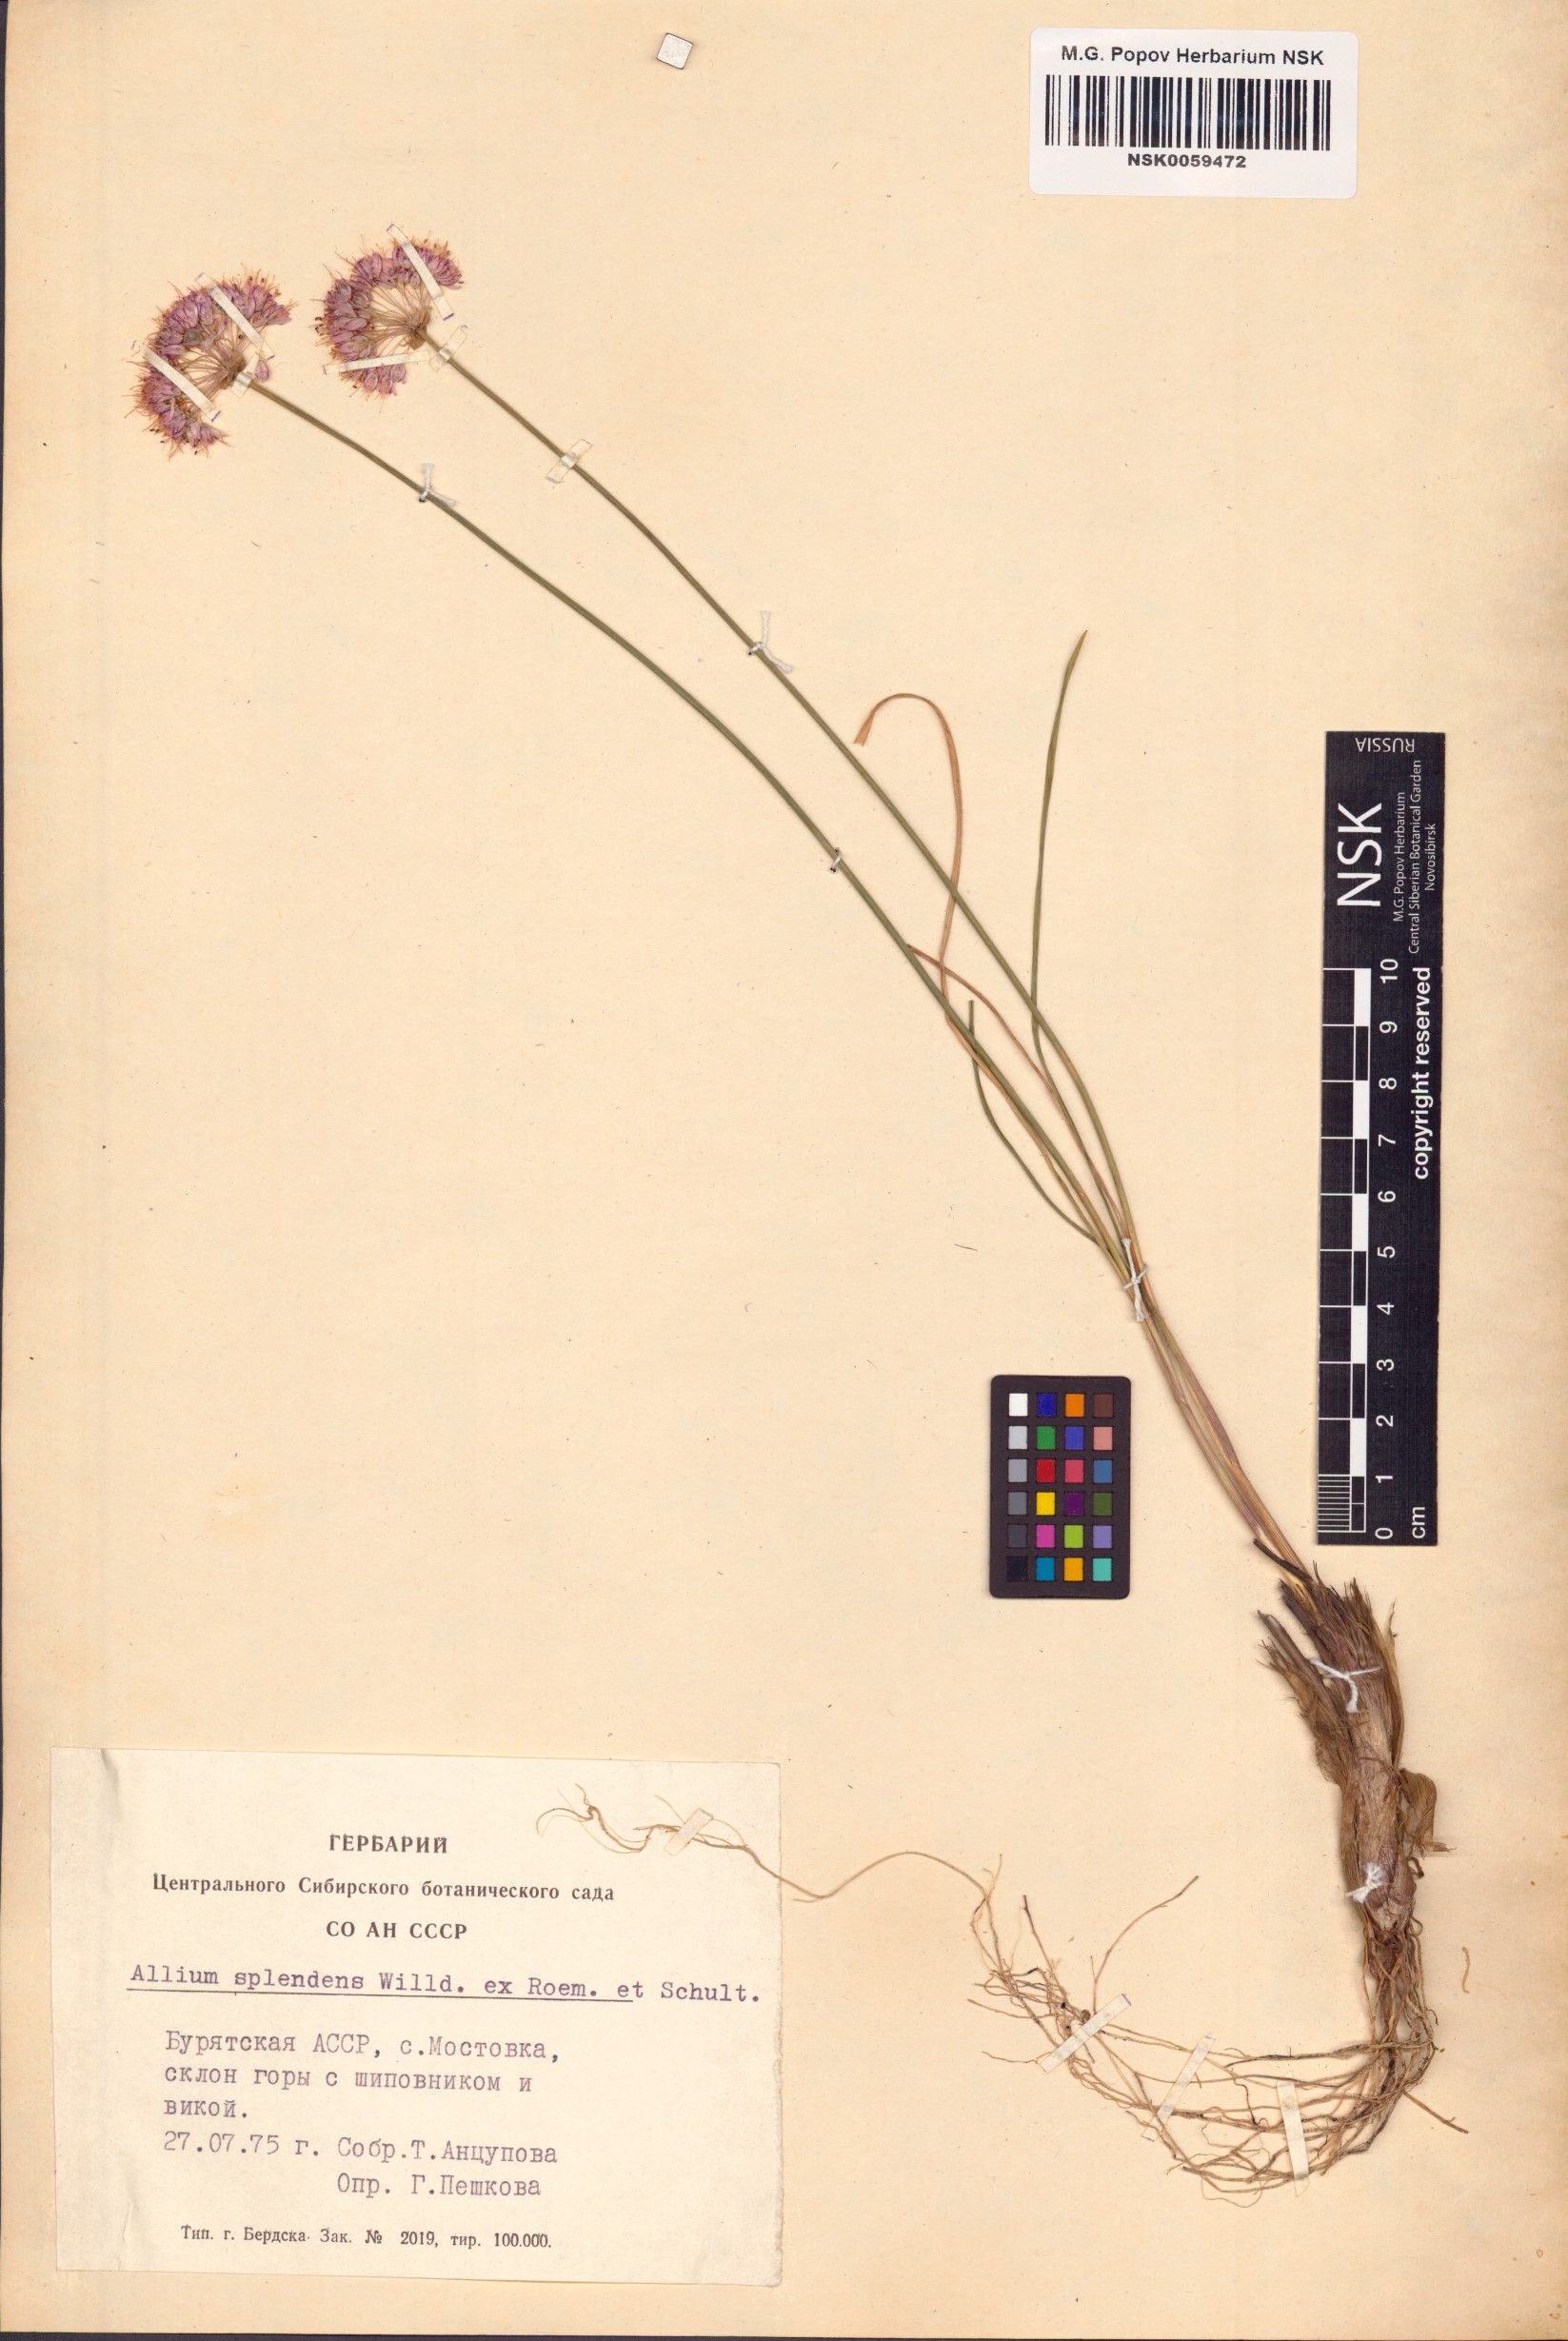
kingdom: Plantae
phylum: Tracheophyta
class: Liliopsida
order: Asparagales
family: Amaryllidaceae
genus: Allium
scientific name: Allium splendens
